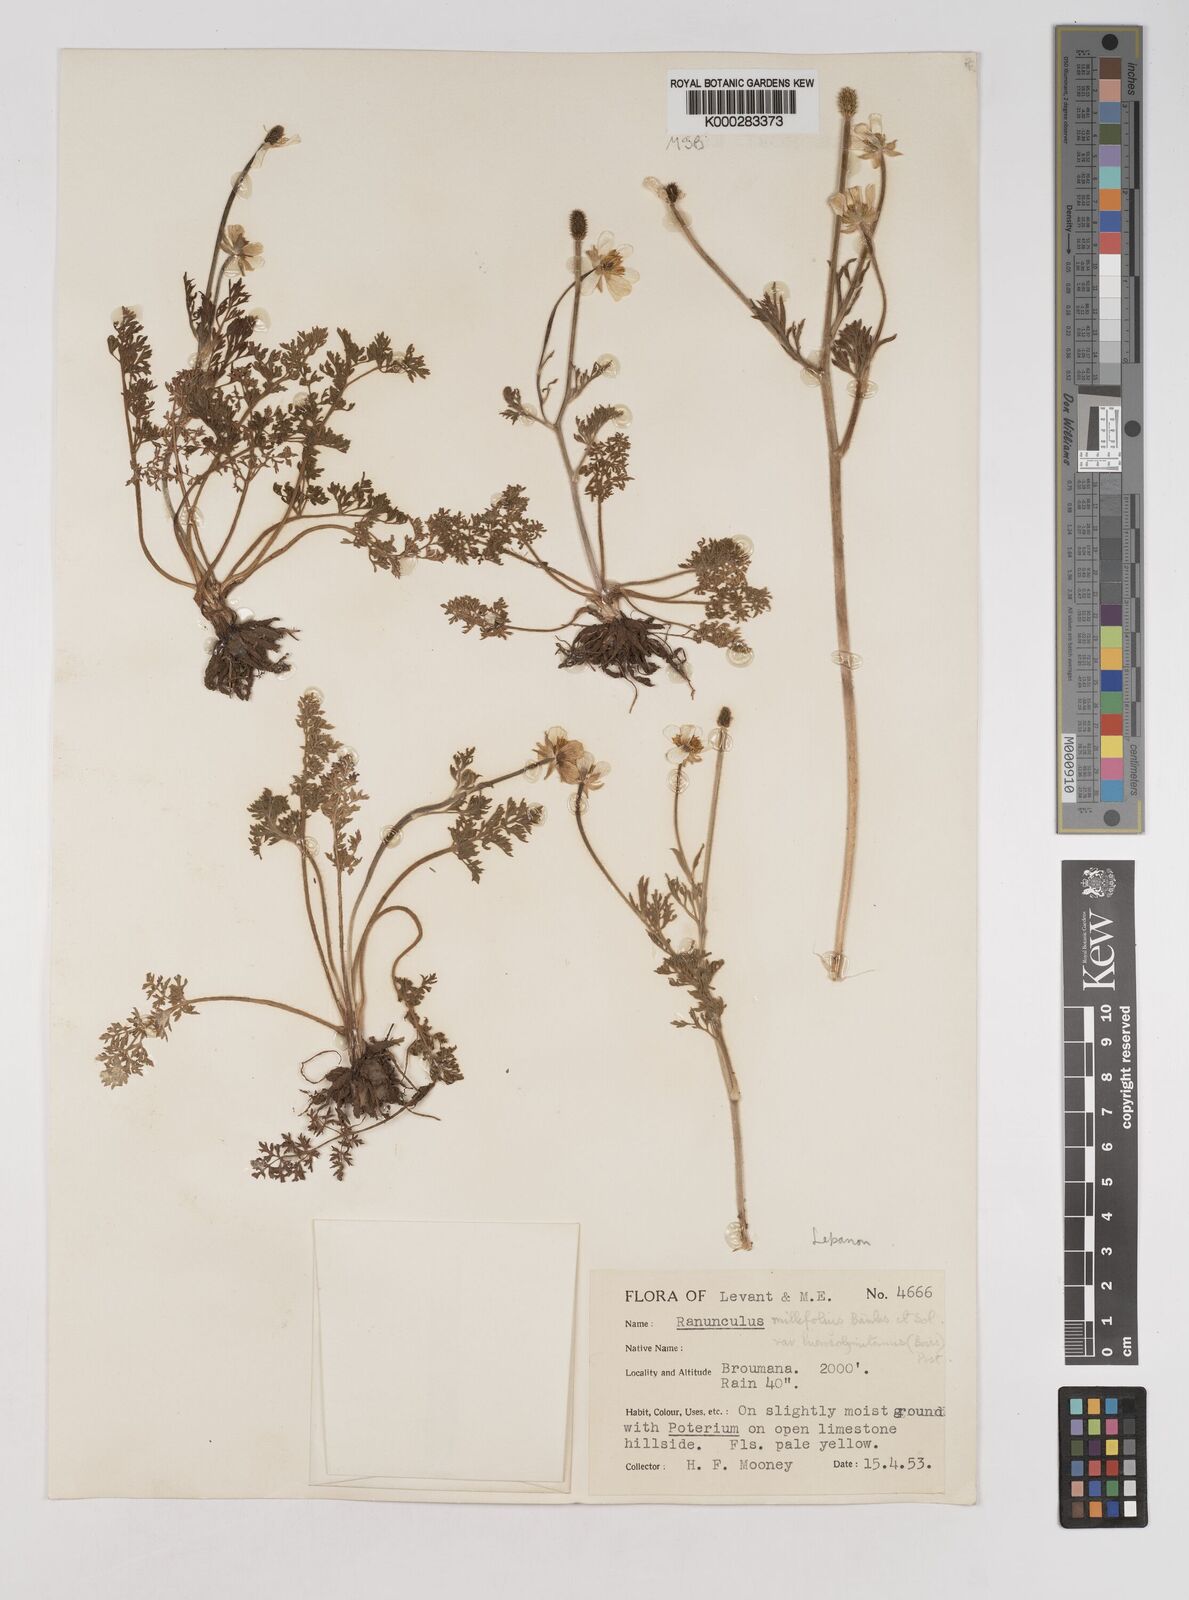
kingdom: Plantae
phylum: Tracheophyta
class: Magnoliopsida
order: Ranunculales
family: Ranunculaceae
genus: Ranunculus
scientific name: Ranunculus millefolius
